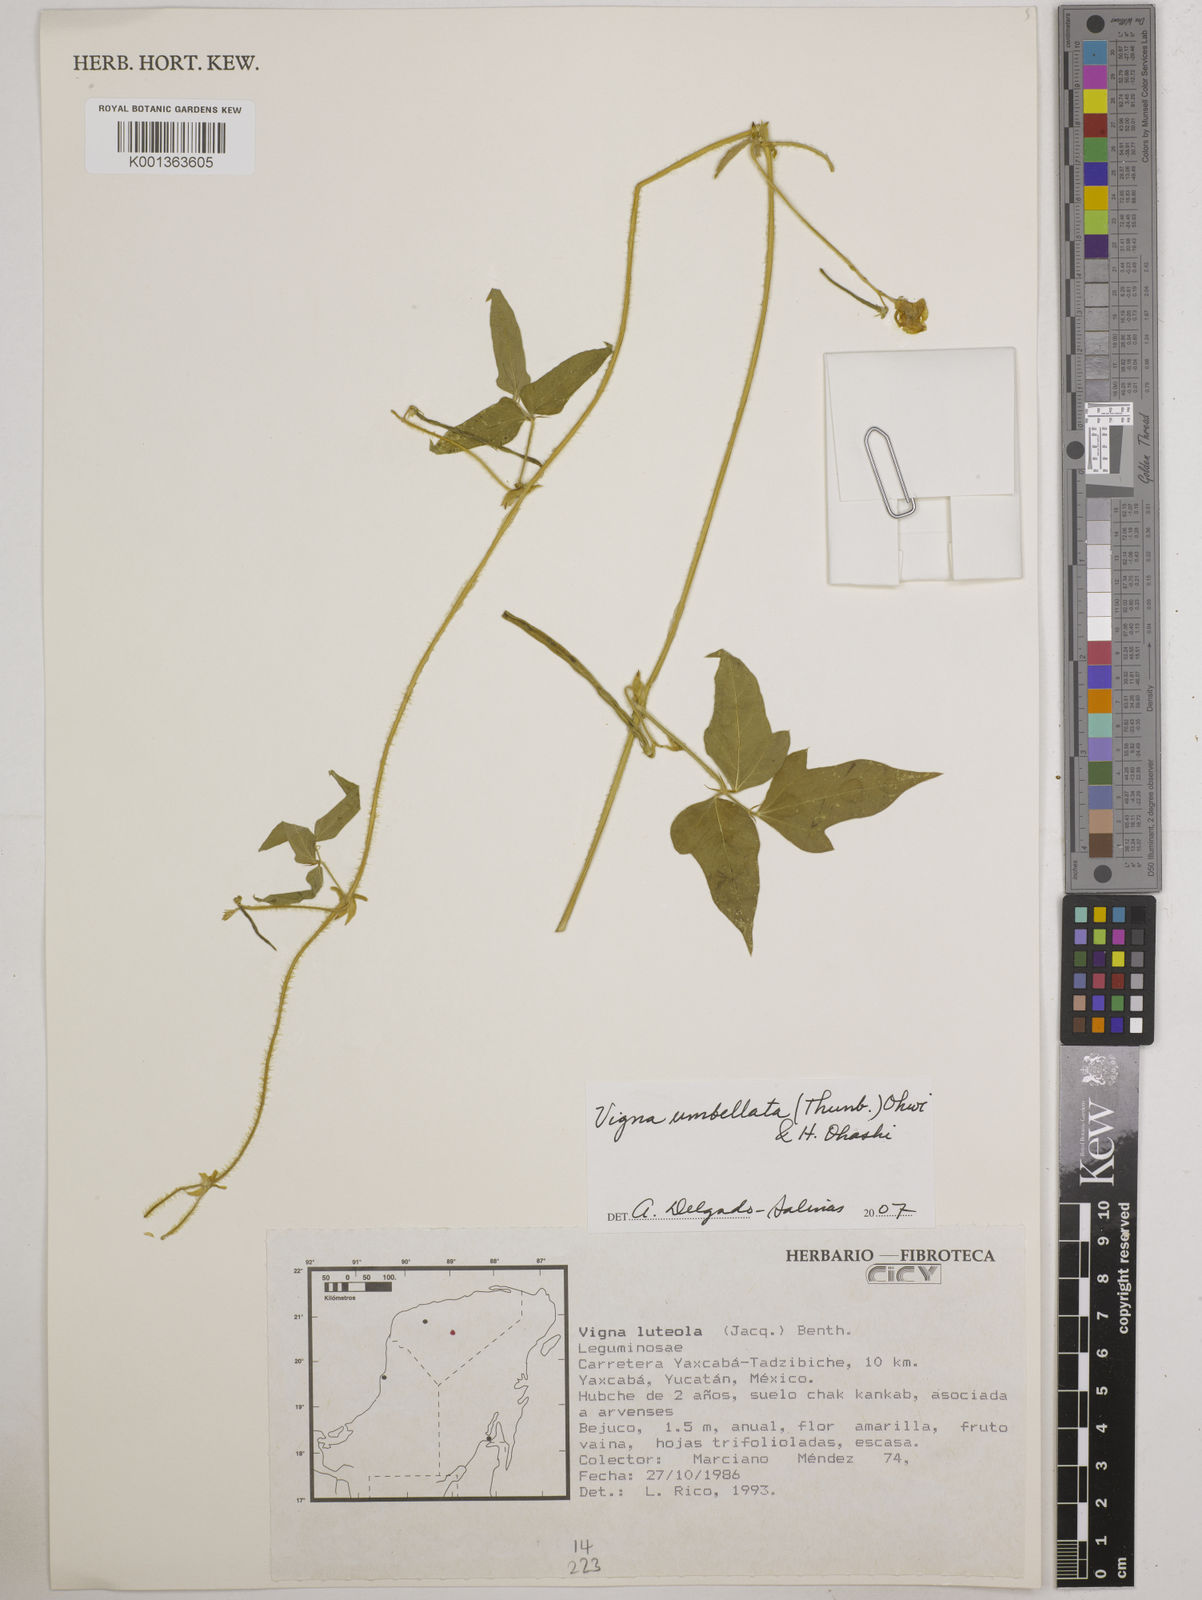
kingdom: Plantae
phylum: Tracheophyta
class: Magnoliopsida
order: Fabales
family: Fabaceae
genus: Vigna
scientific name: Vigna umbellata
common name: Oriental-bean
